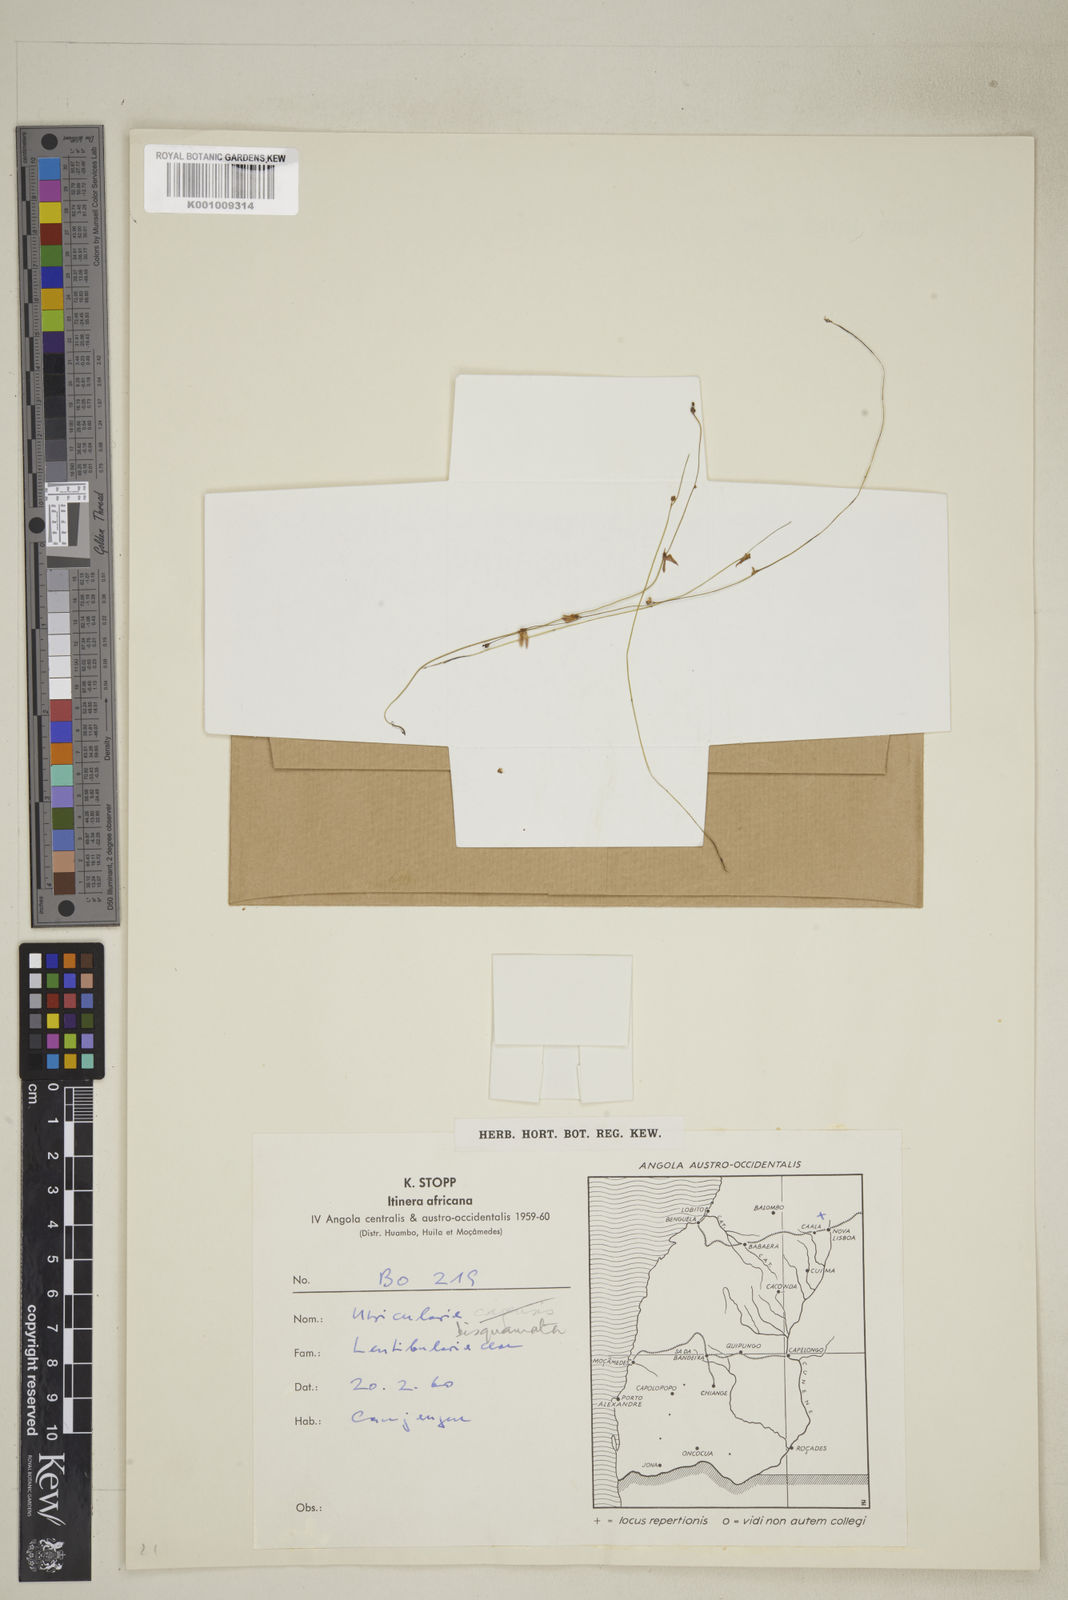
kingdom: Plantae
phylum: Tracheophyta
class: Magnoliopsida
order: Lamiales
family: Lentibulariaceae
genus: Utricularia
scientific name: Utricularia bisquamata
